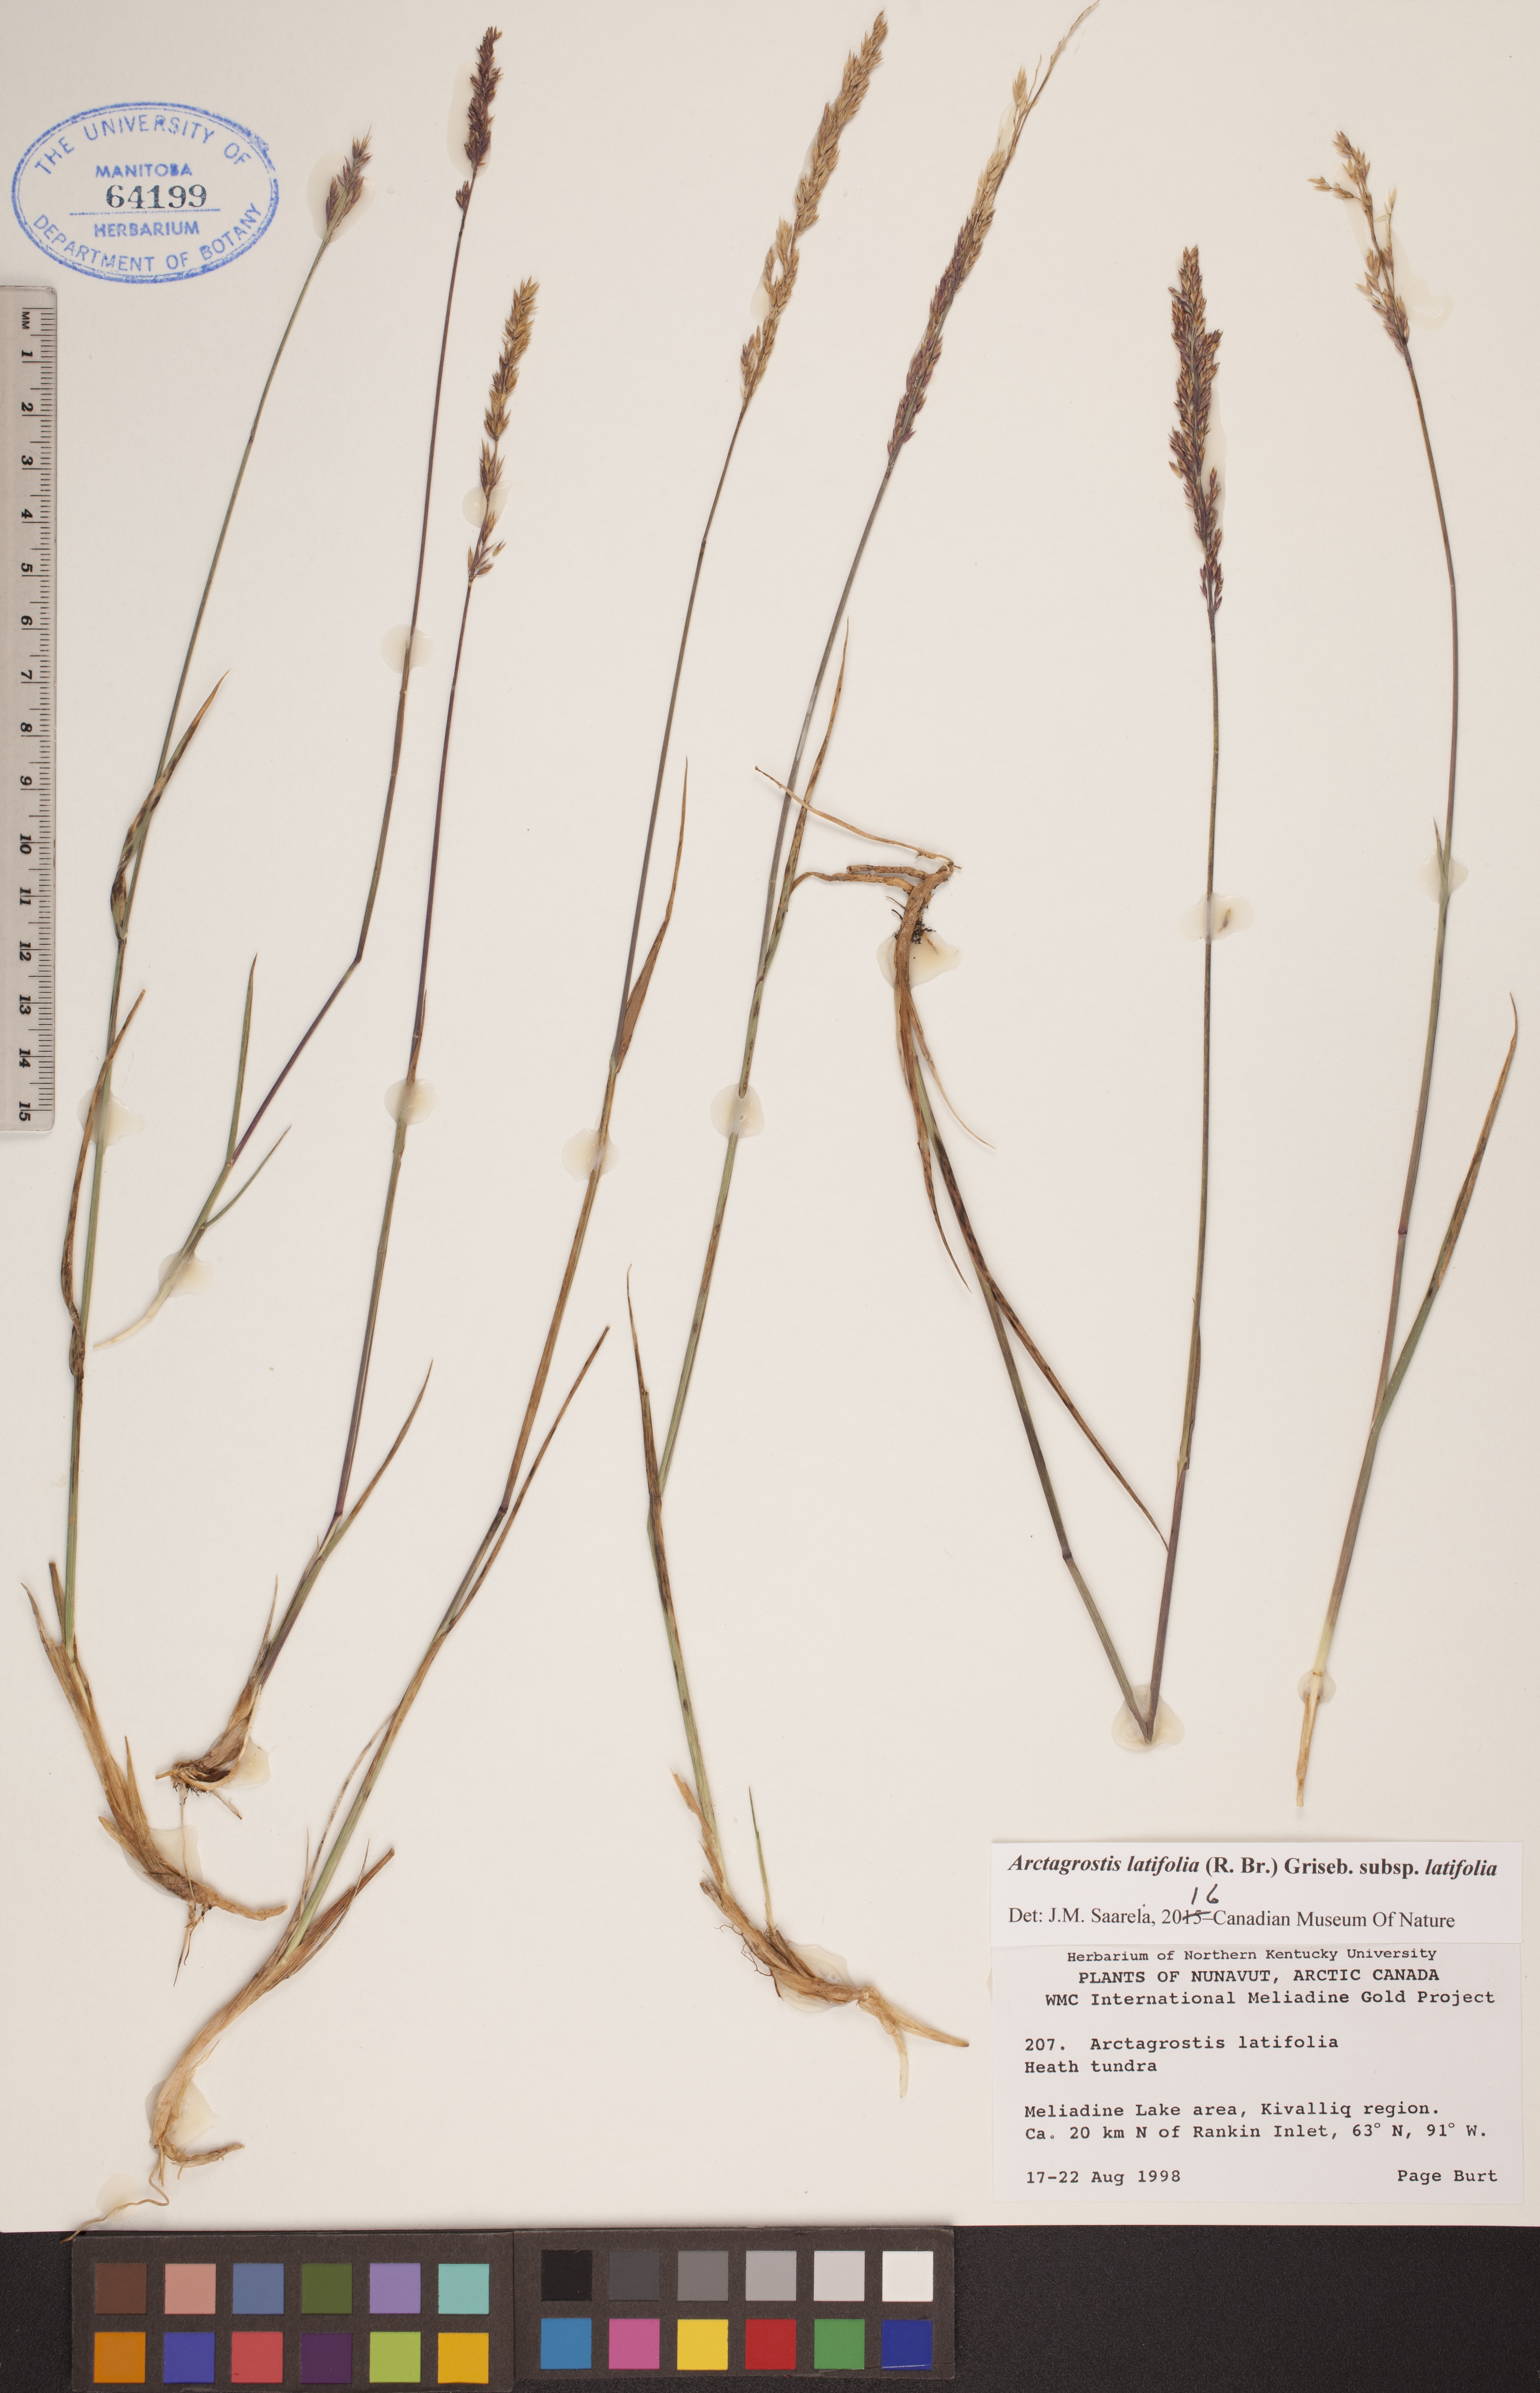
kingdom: Plantae
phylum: Tracheophyta
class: Liliopsida
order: Poales
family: Poaceae
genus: Arctagrostis
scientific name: Arctagrostis latifolia
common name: Arctic grass
